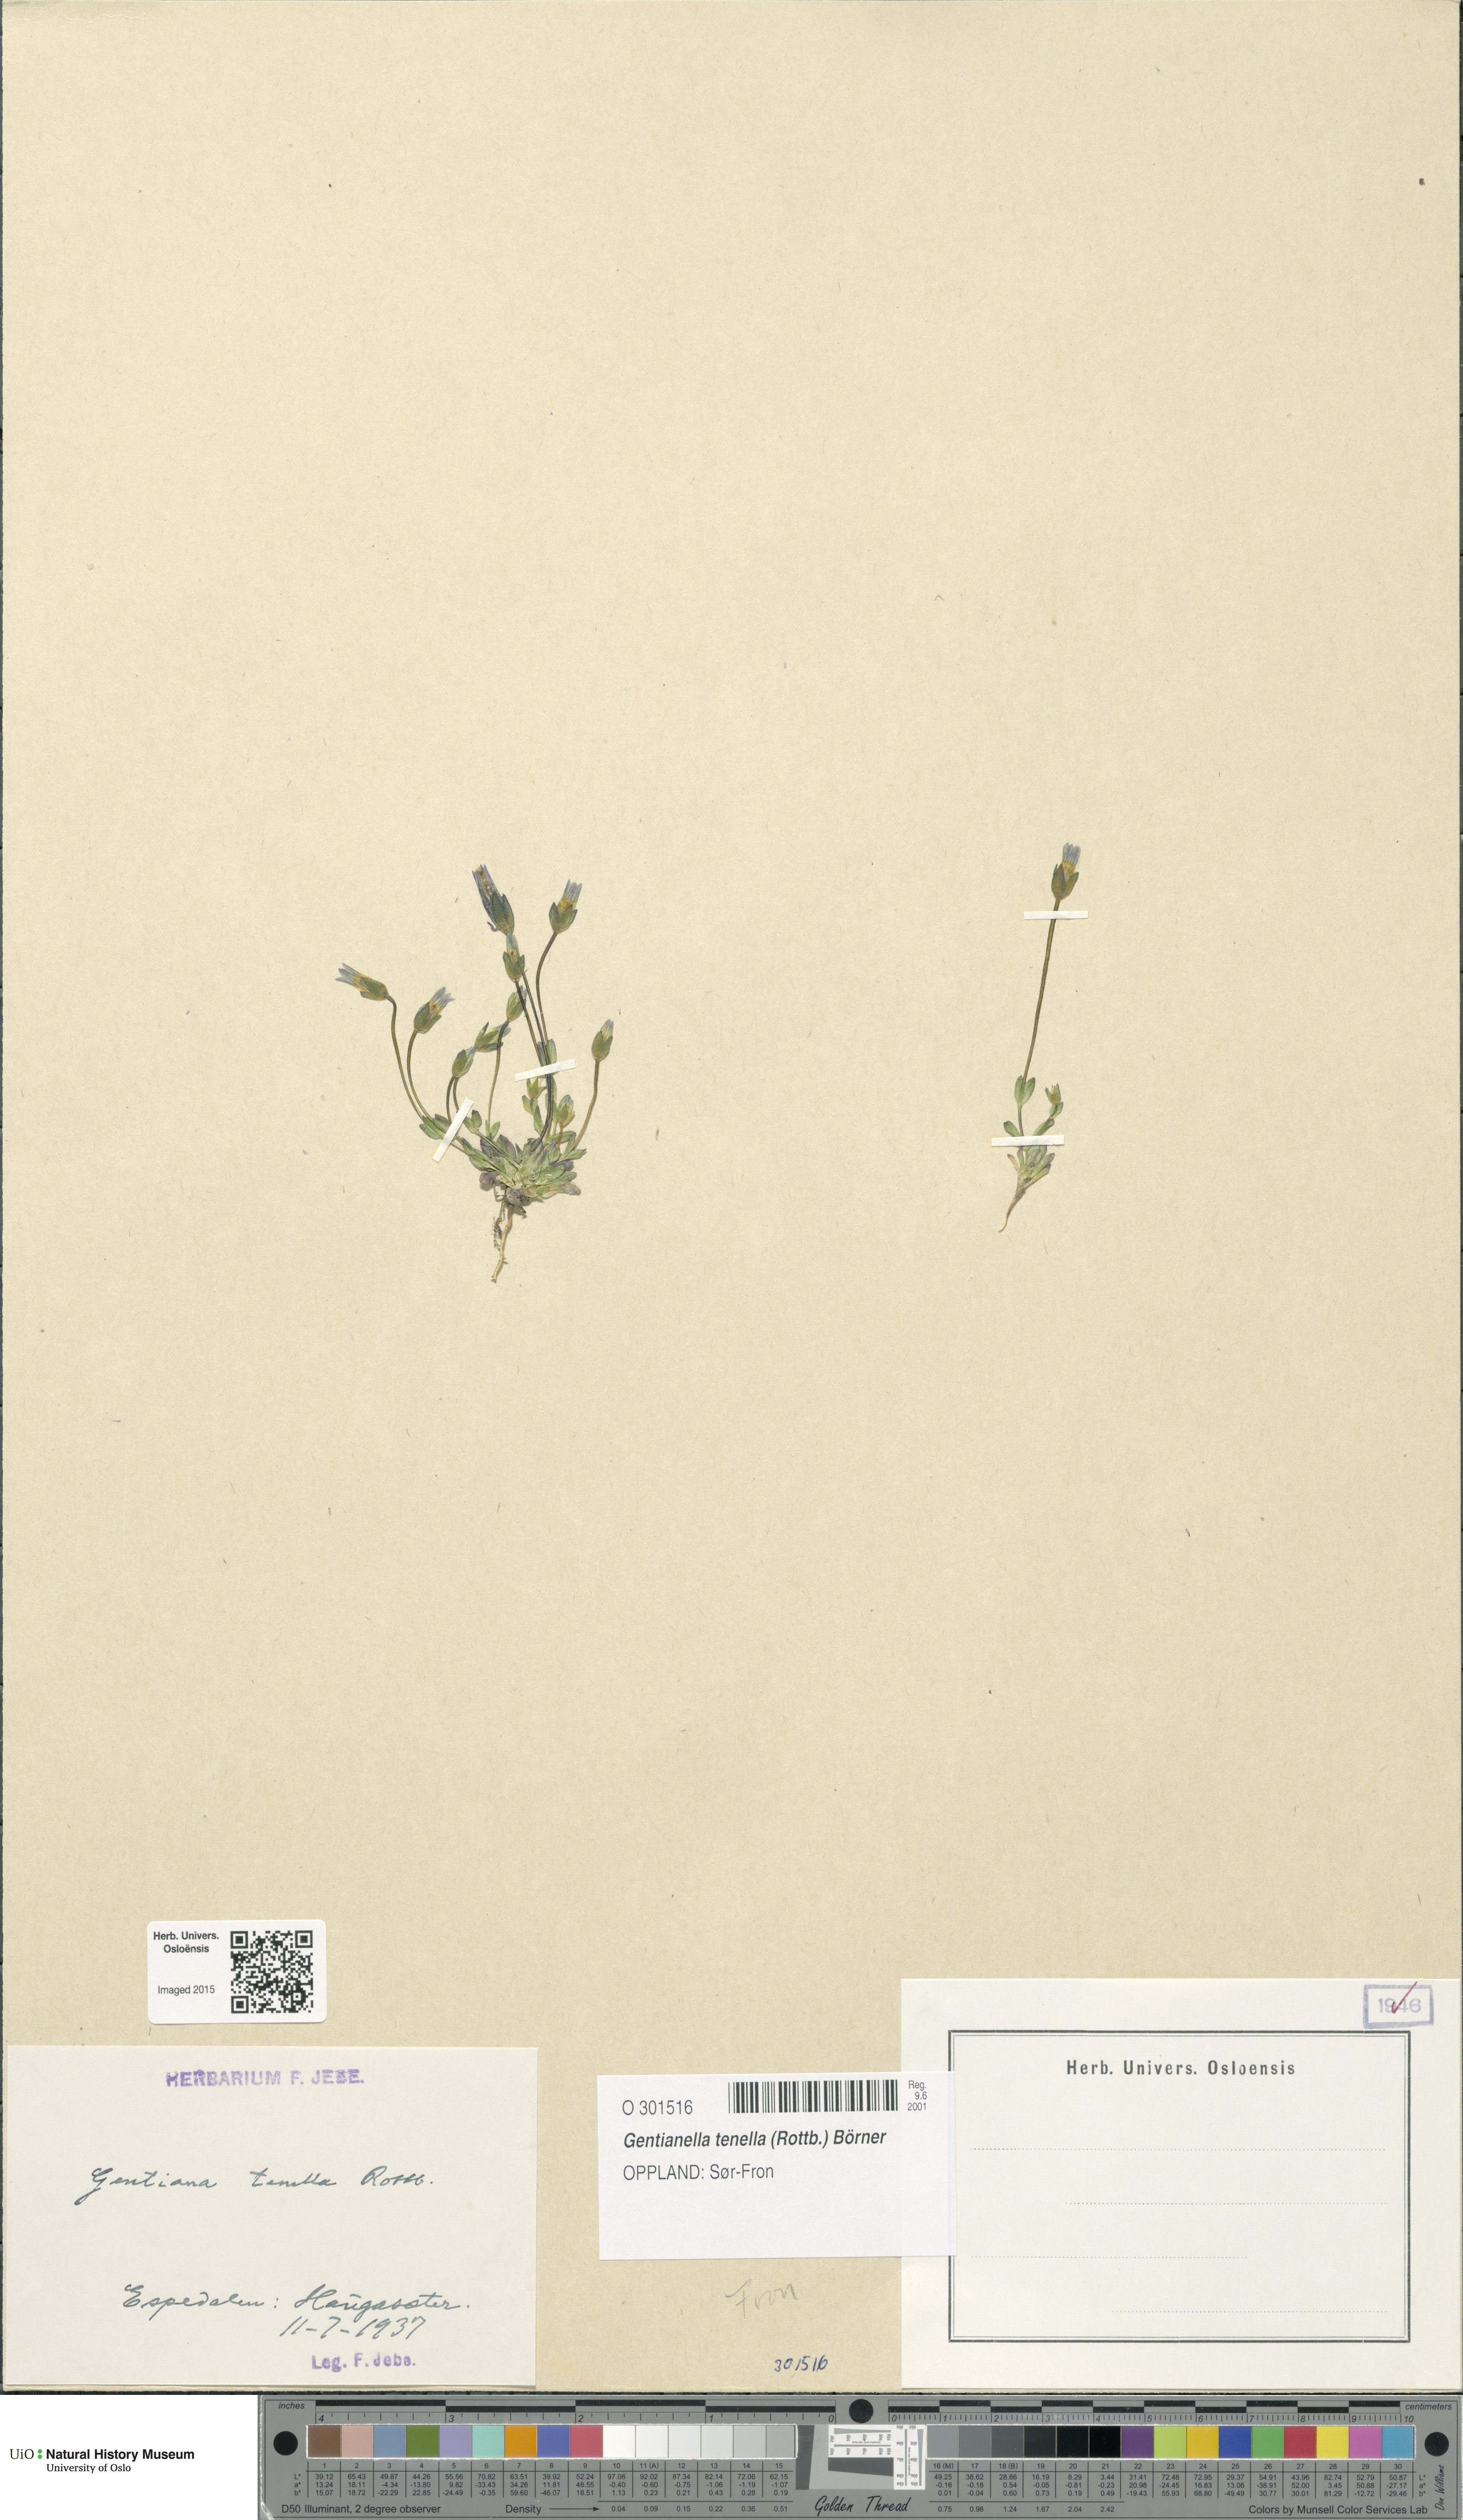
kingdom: Plantae
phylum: Tracheophyta
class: Magnoliopsida
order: Gentianales
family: Gentianaceae
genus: Comastoma
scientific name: Comastoma tenellum
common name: Dane's dwarf gentian
